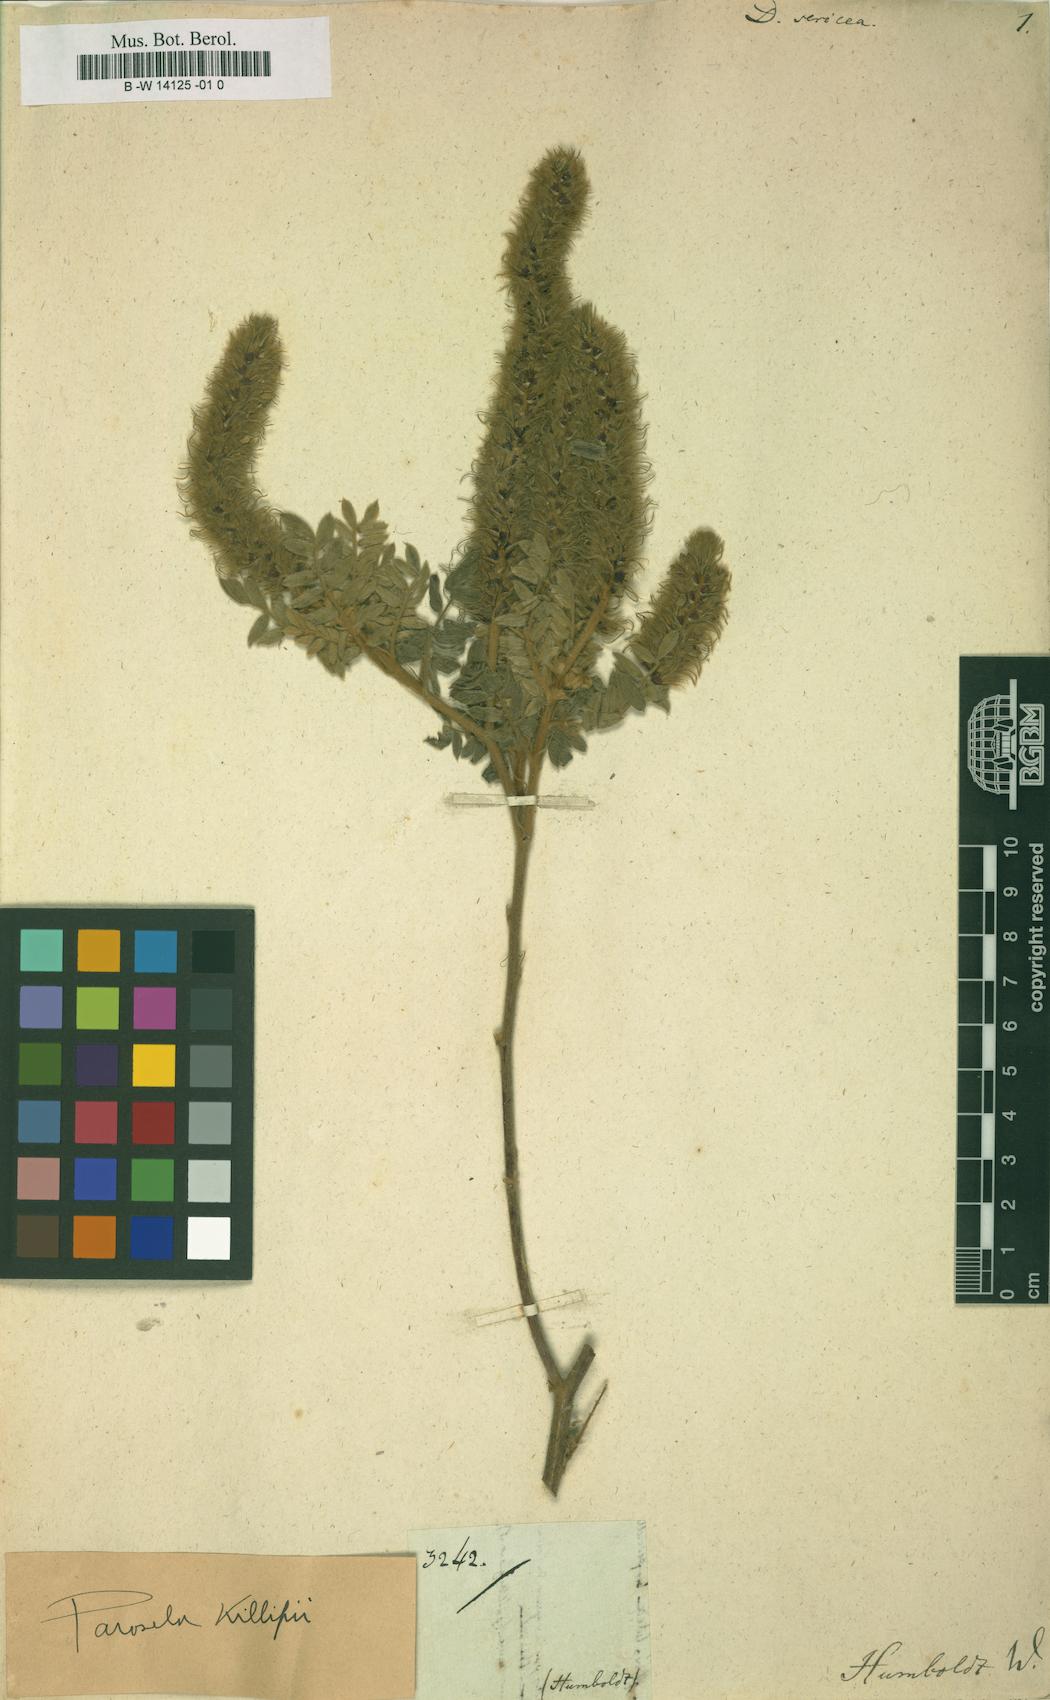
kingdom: Plantae
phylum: Tracheophyta
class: Magnoliopsida
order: Fabales
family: Fabaceae
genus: Dalea
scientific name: Dalea sericea
